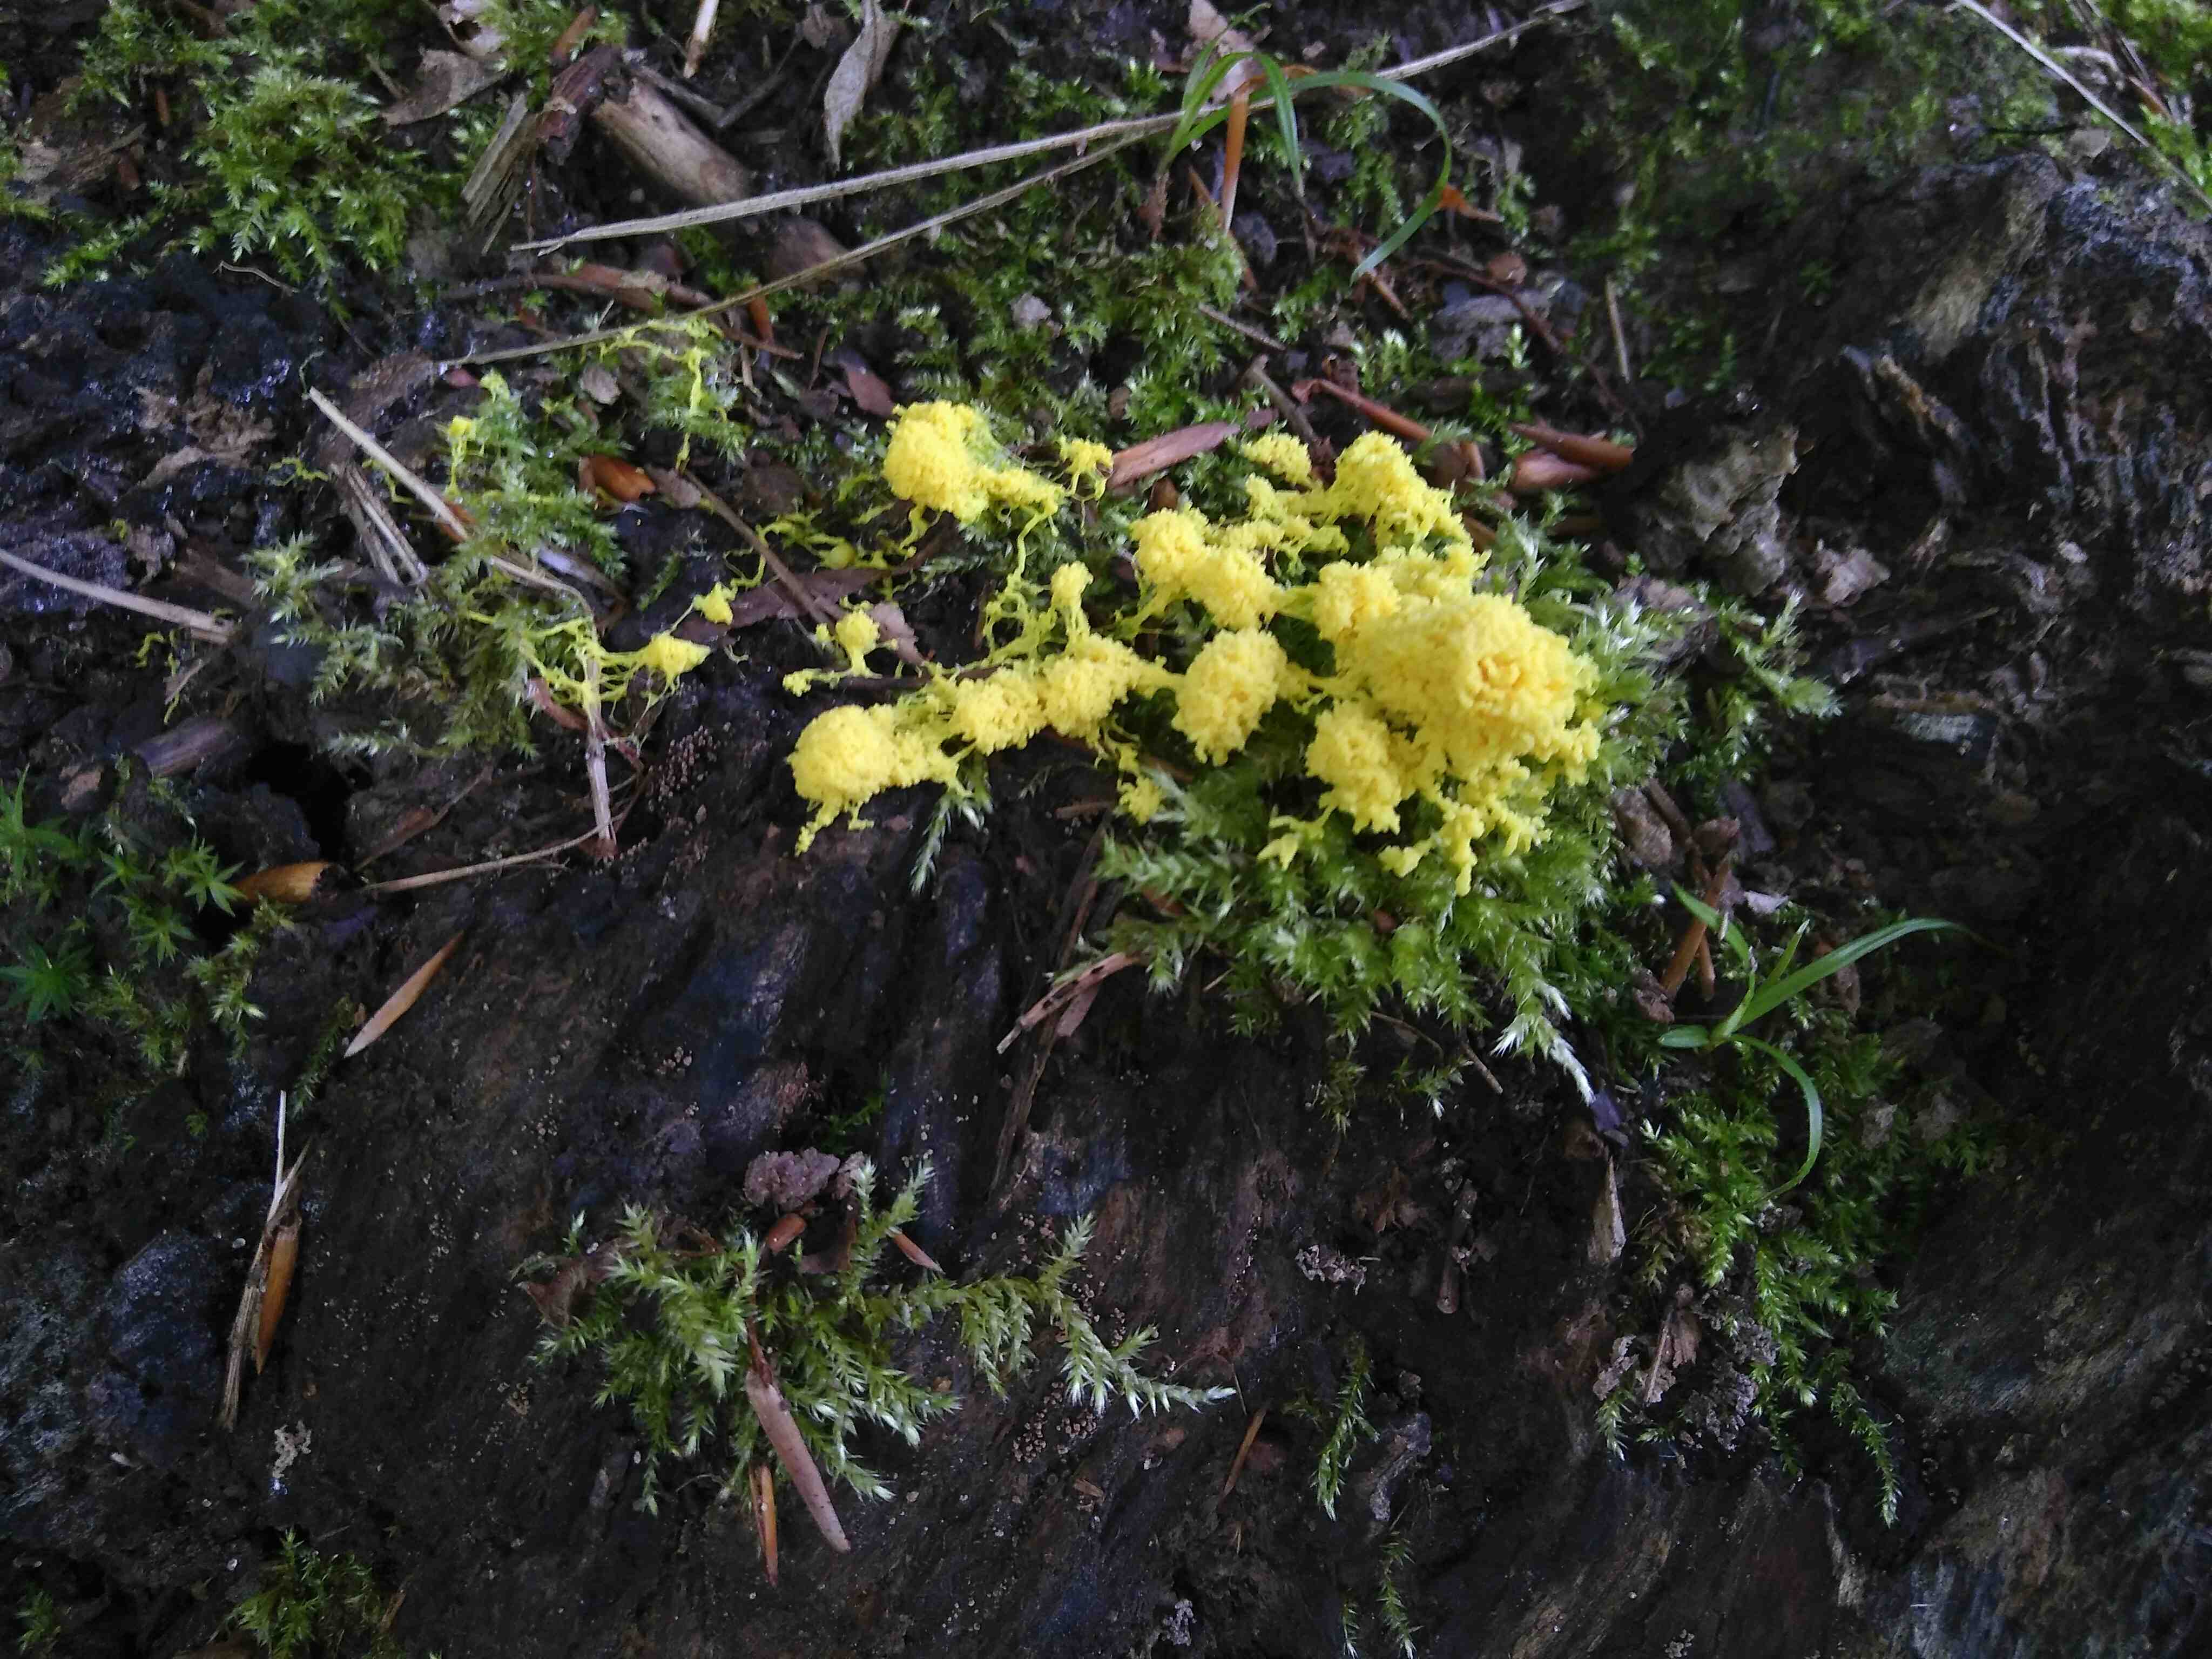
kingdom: Protozoa
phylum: Mycetozoa
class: Myxomycetes
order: Physarales
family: Physaraceae
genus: Fuligo
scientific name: Fuligo septica
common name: gul troldsmør
